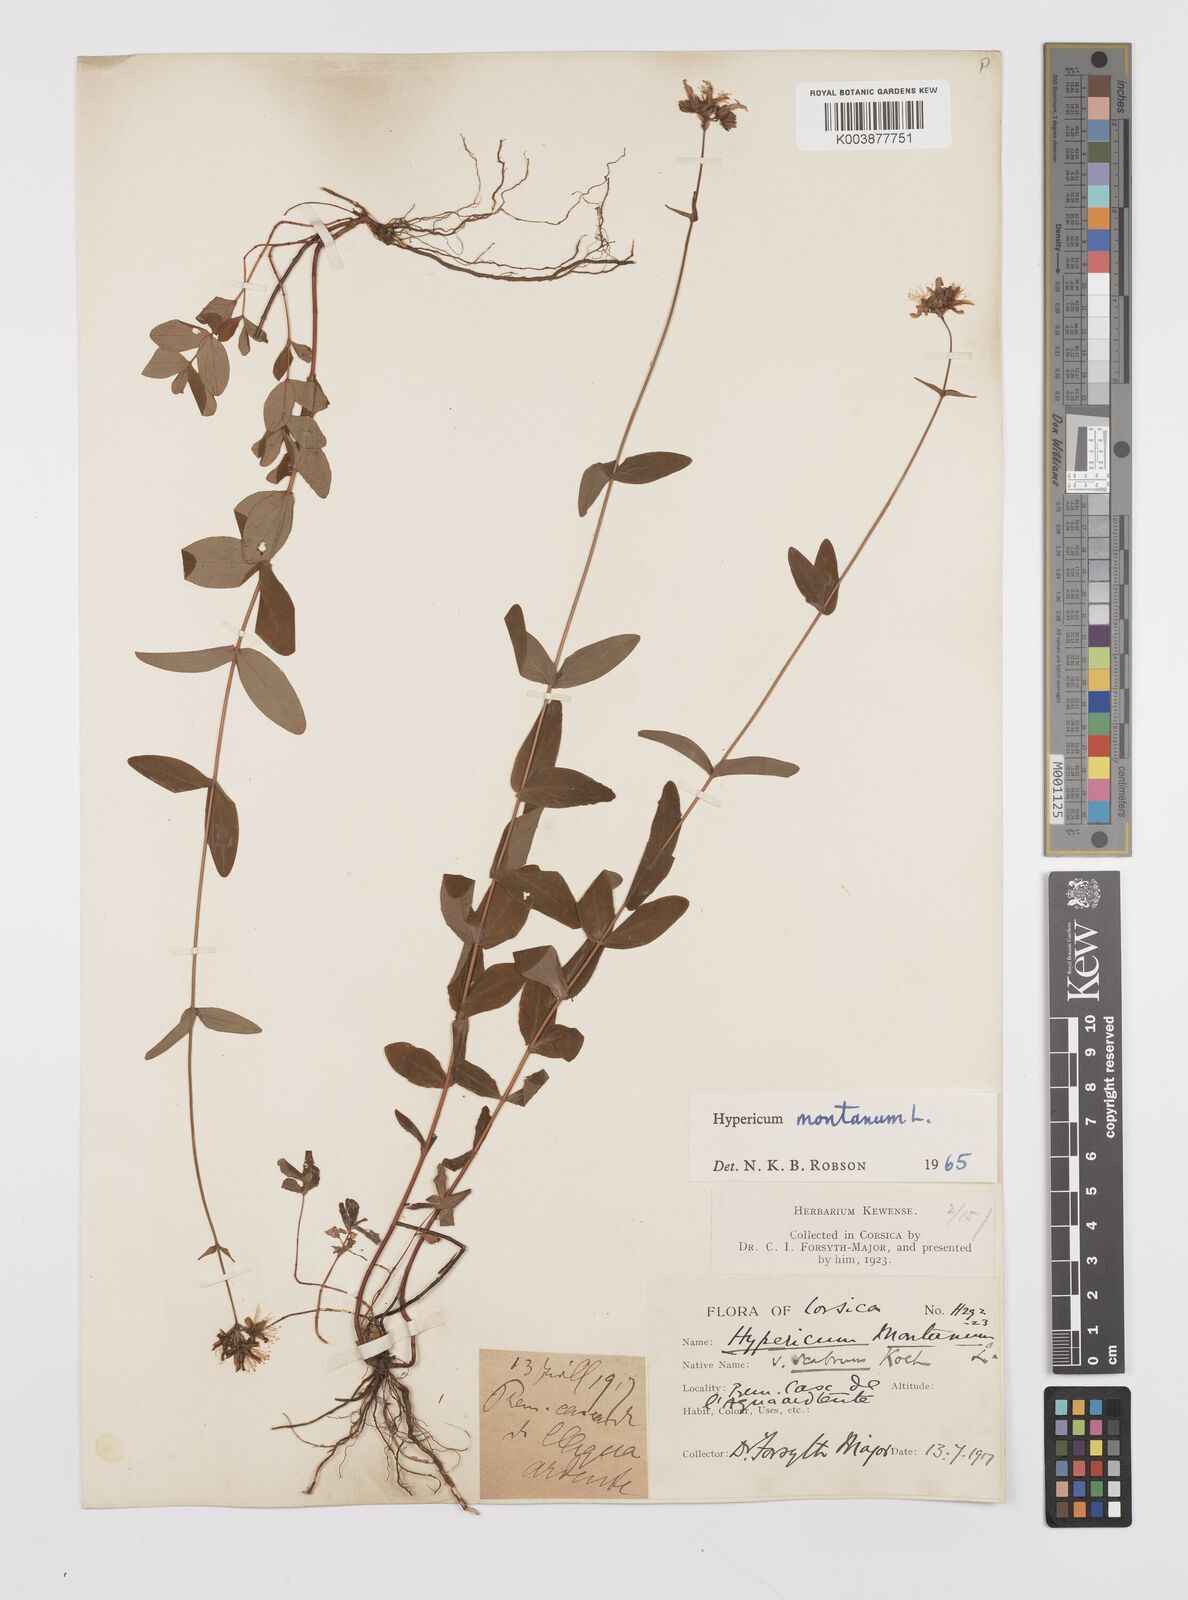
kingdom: Plantae
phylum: Tracheophyta
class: Magnoliopsida
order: Malpighiales
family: Hypericaceae
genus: Hypericum
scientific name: Hypericum montanum
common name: Pale st. john's-wort
